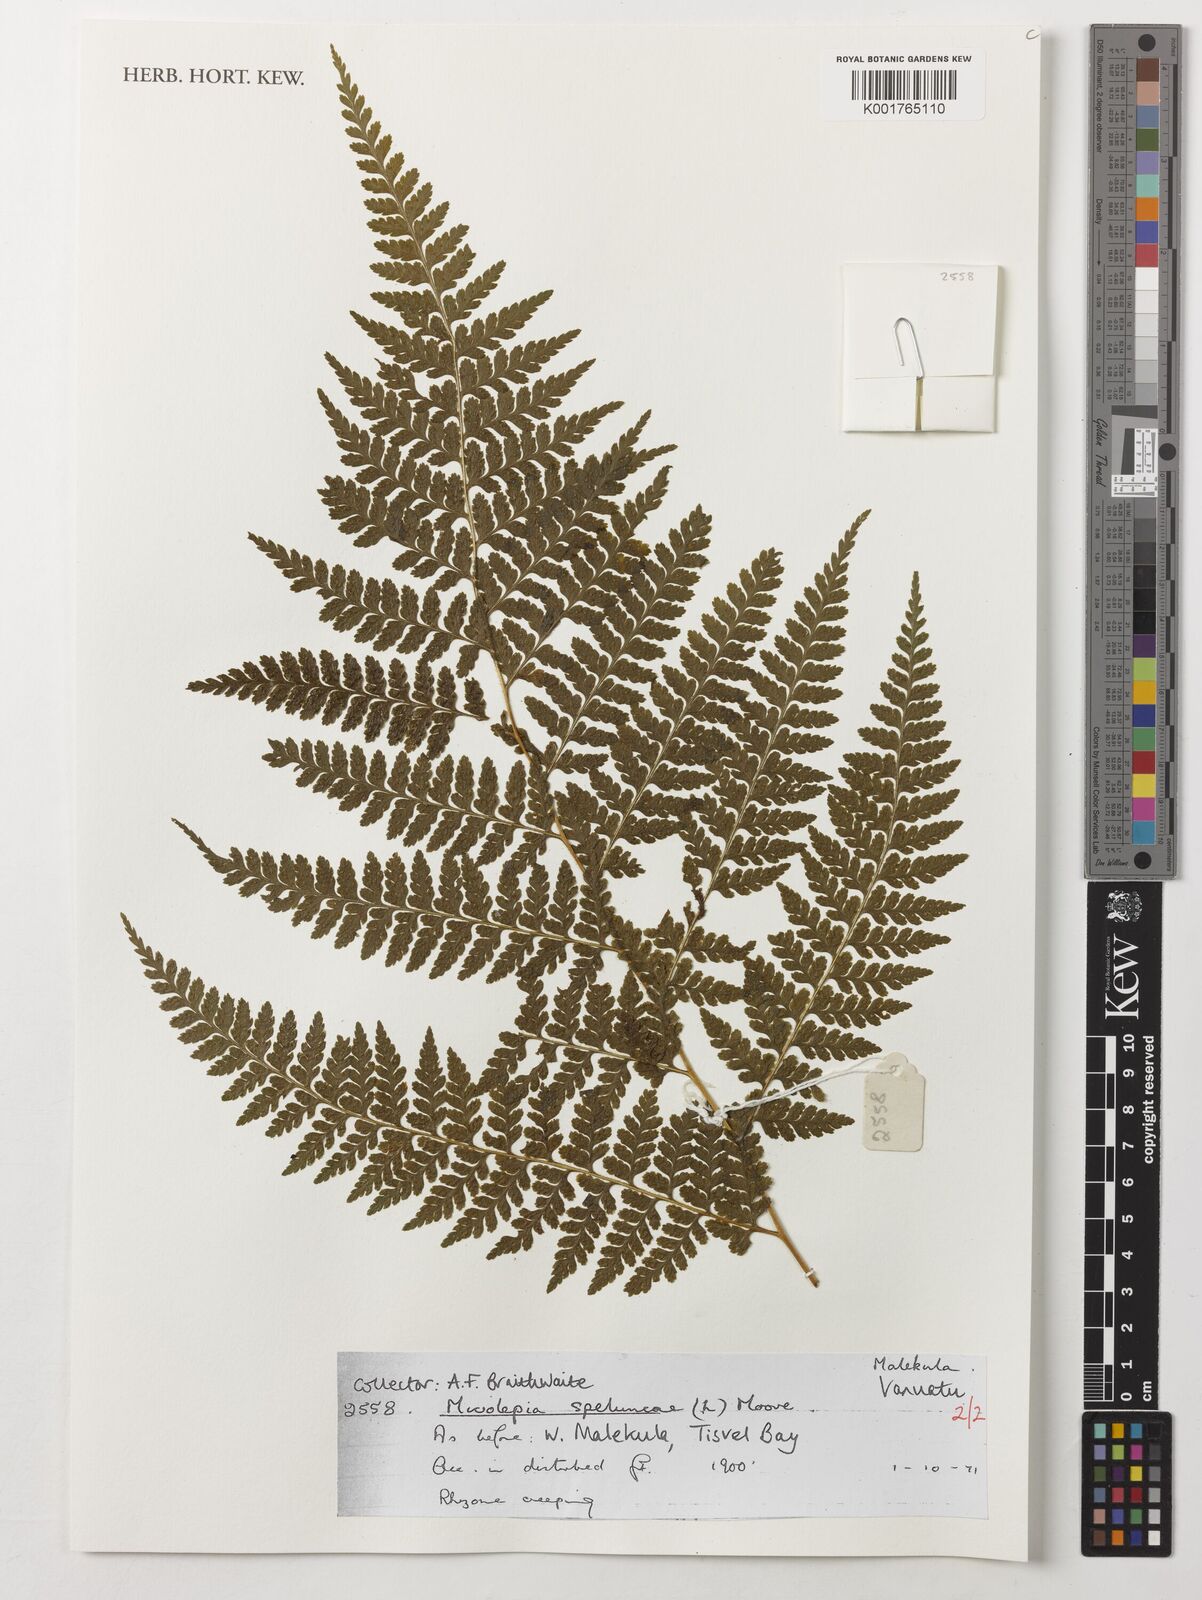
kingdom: Plantae
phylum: Tracheophyta
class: Polypodiopsida
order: Polypodiales
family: Dennstaedtiaceae
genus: Microlepia
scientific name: Microlepia speluncae
